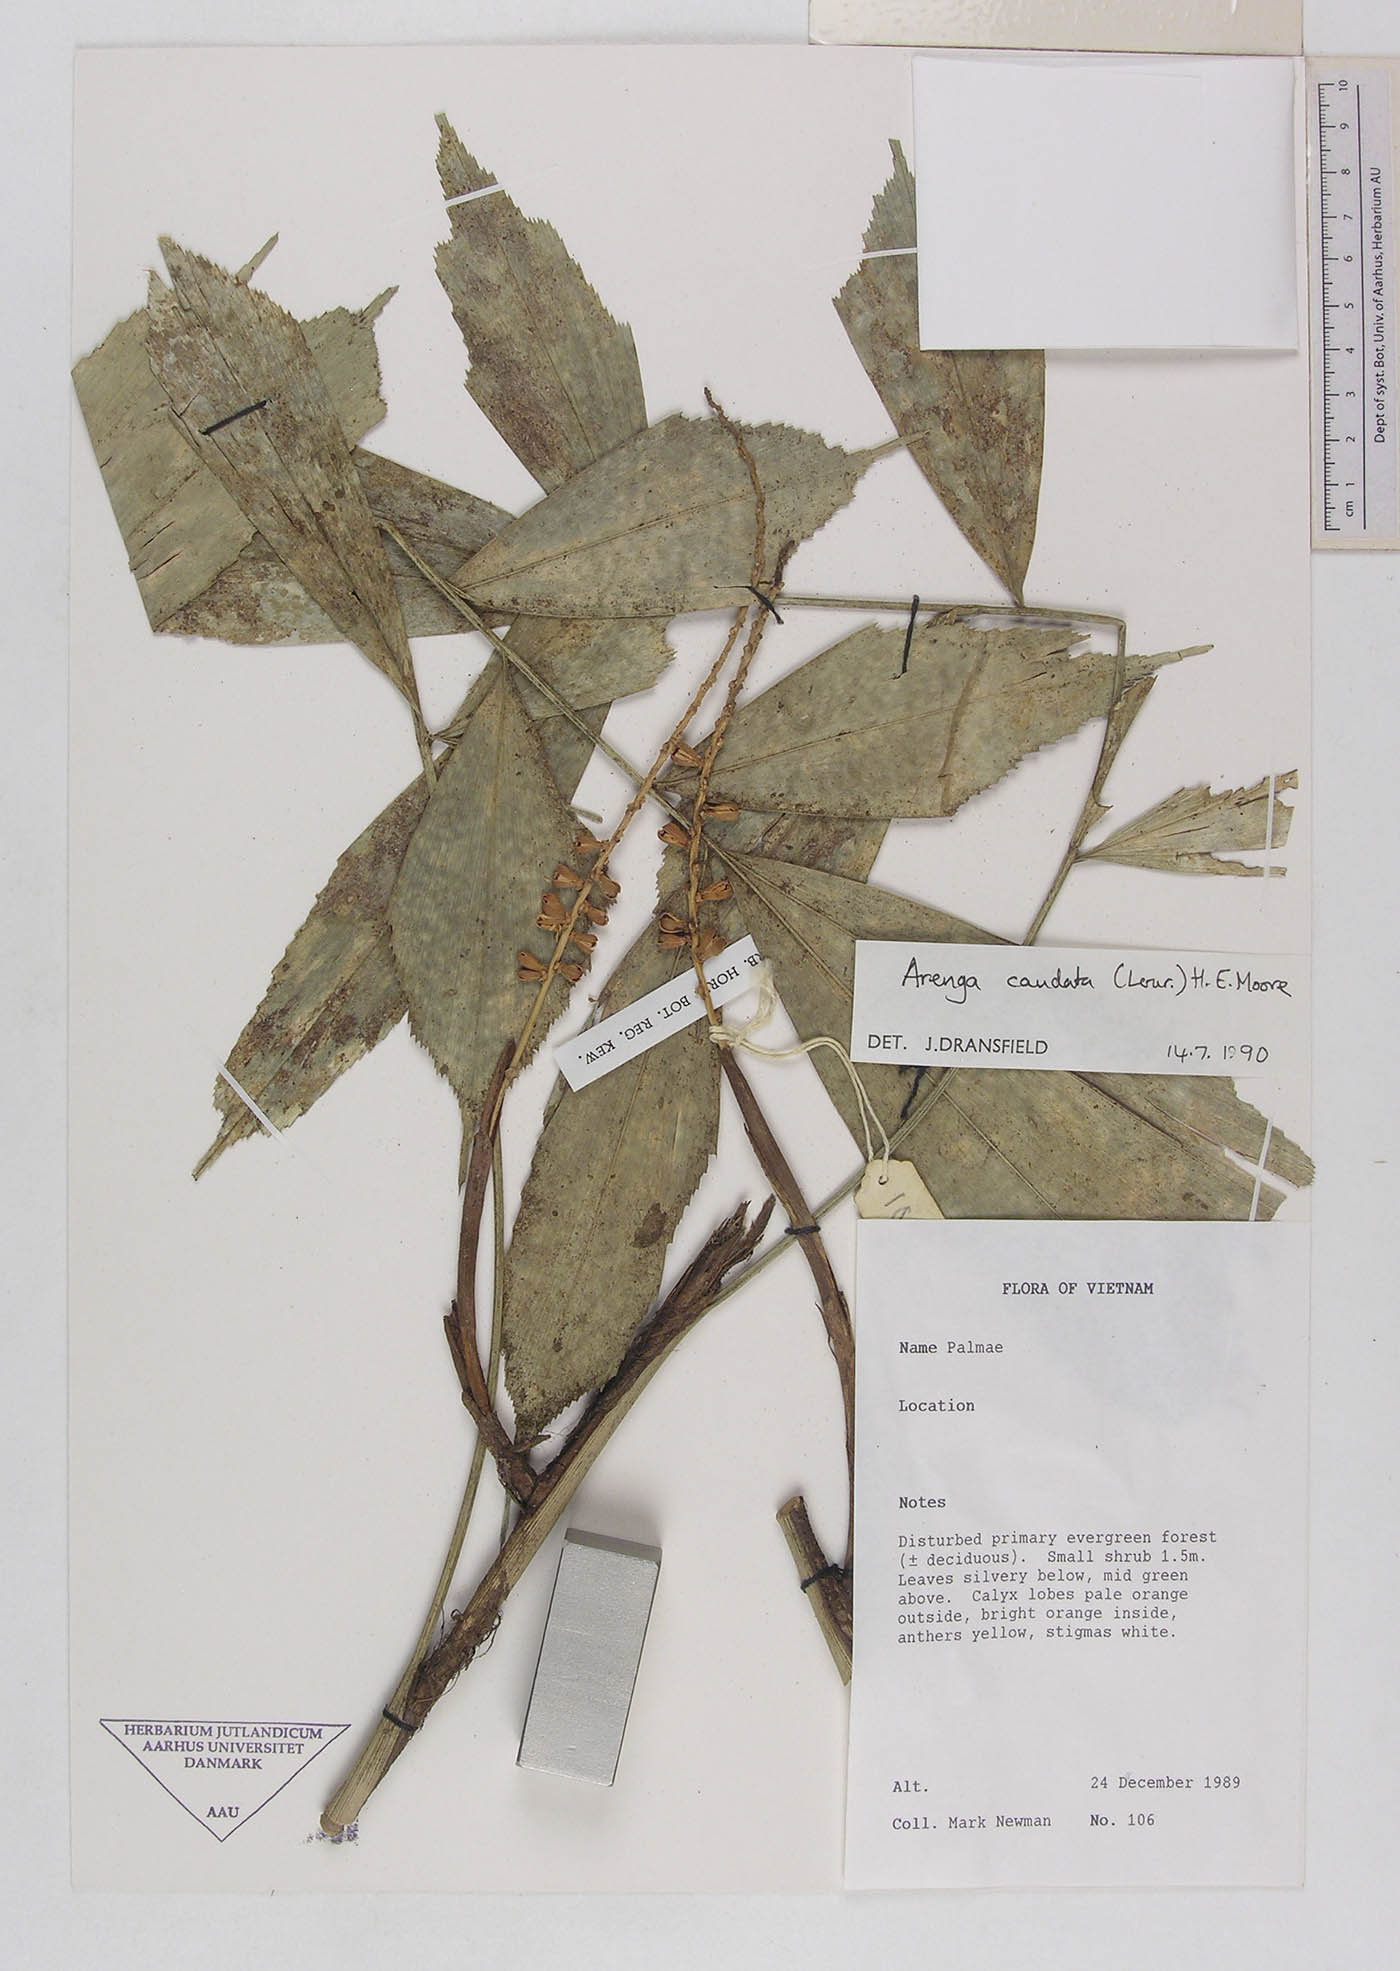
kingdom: Plantae
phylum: Tracheophyta
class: Liliopsida
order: Arecales
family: Arecaceae
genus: Arenga
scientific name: Arenga caudata
